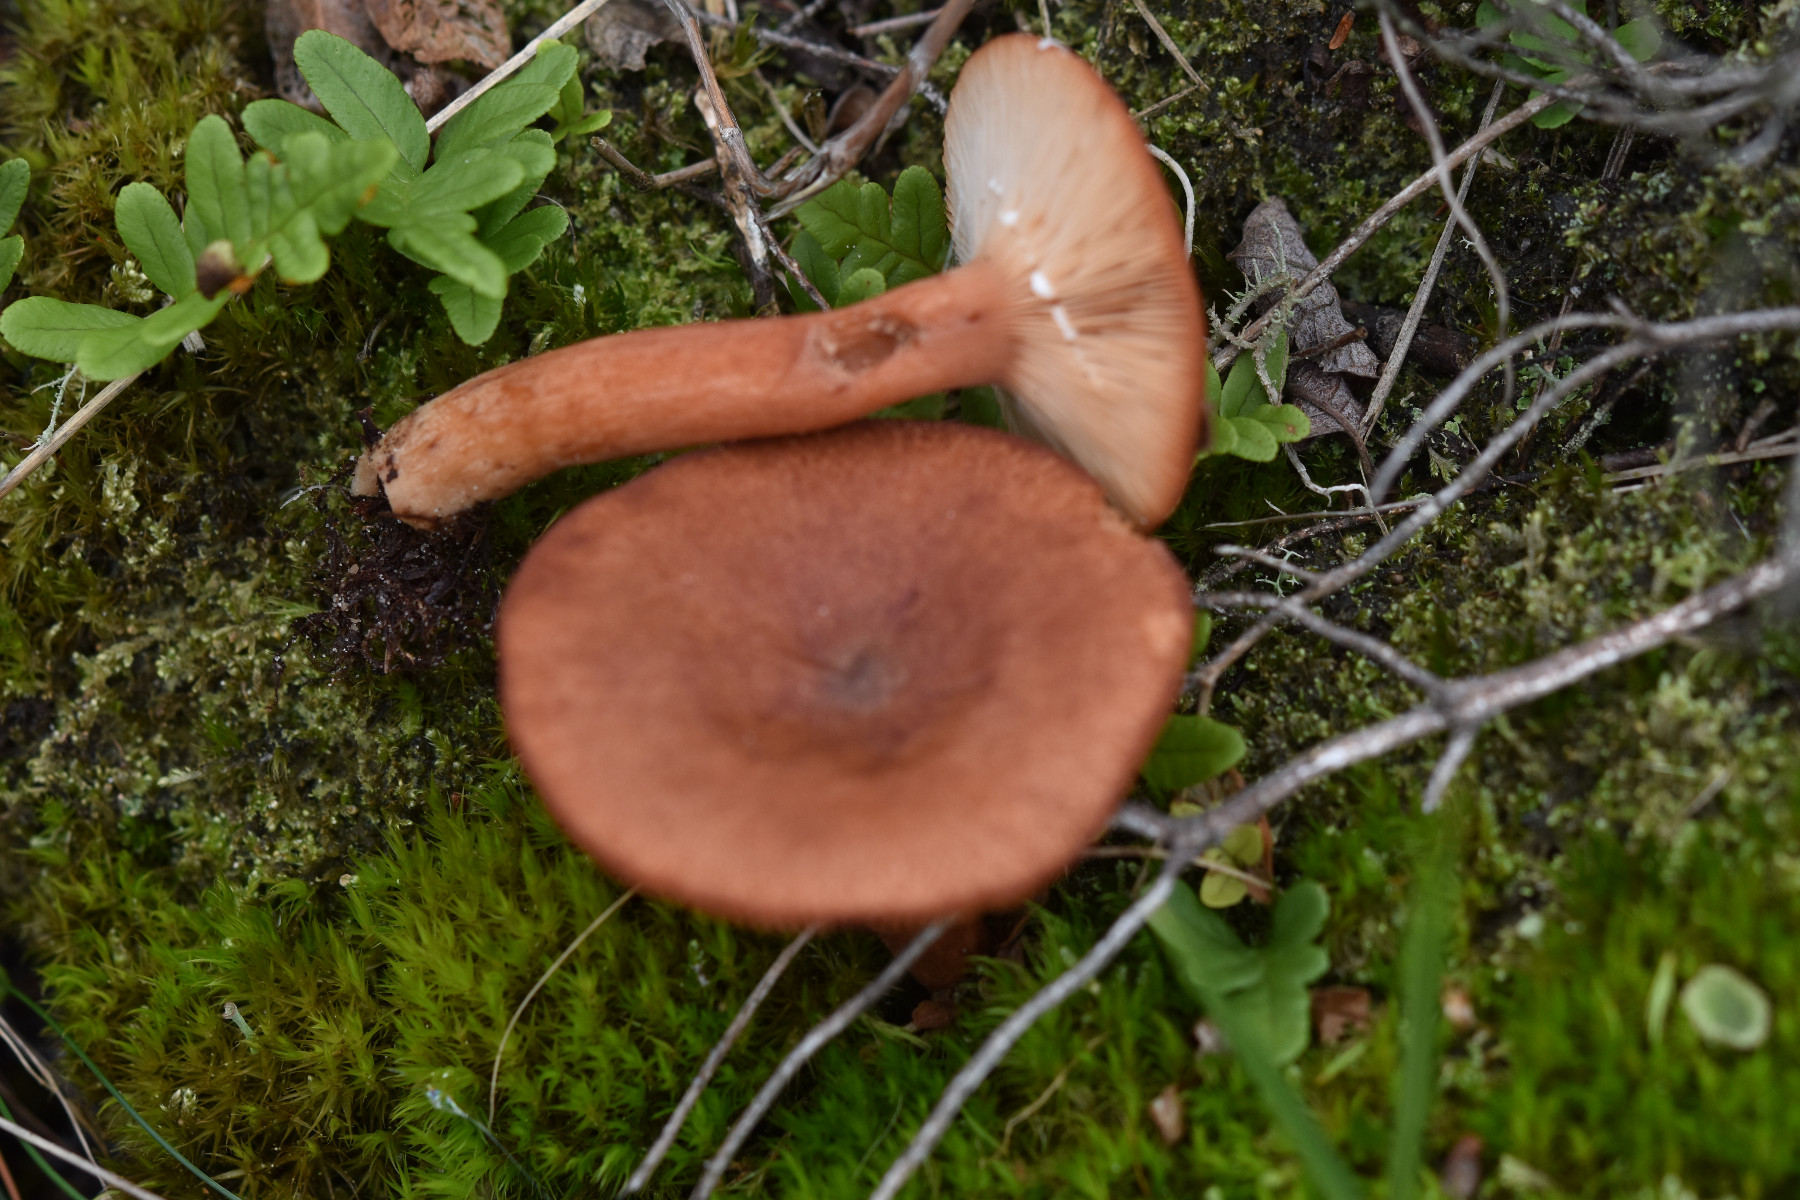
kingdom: Fungi
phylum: Basidiomycota
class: Agaricomycetes
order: Russulales
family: Russulaceae
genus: Lactarius
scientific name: Lactarius rufus
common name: rødbrun mælkehat
